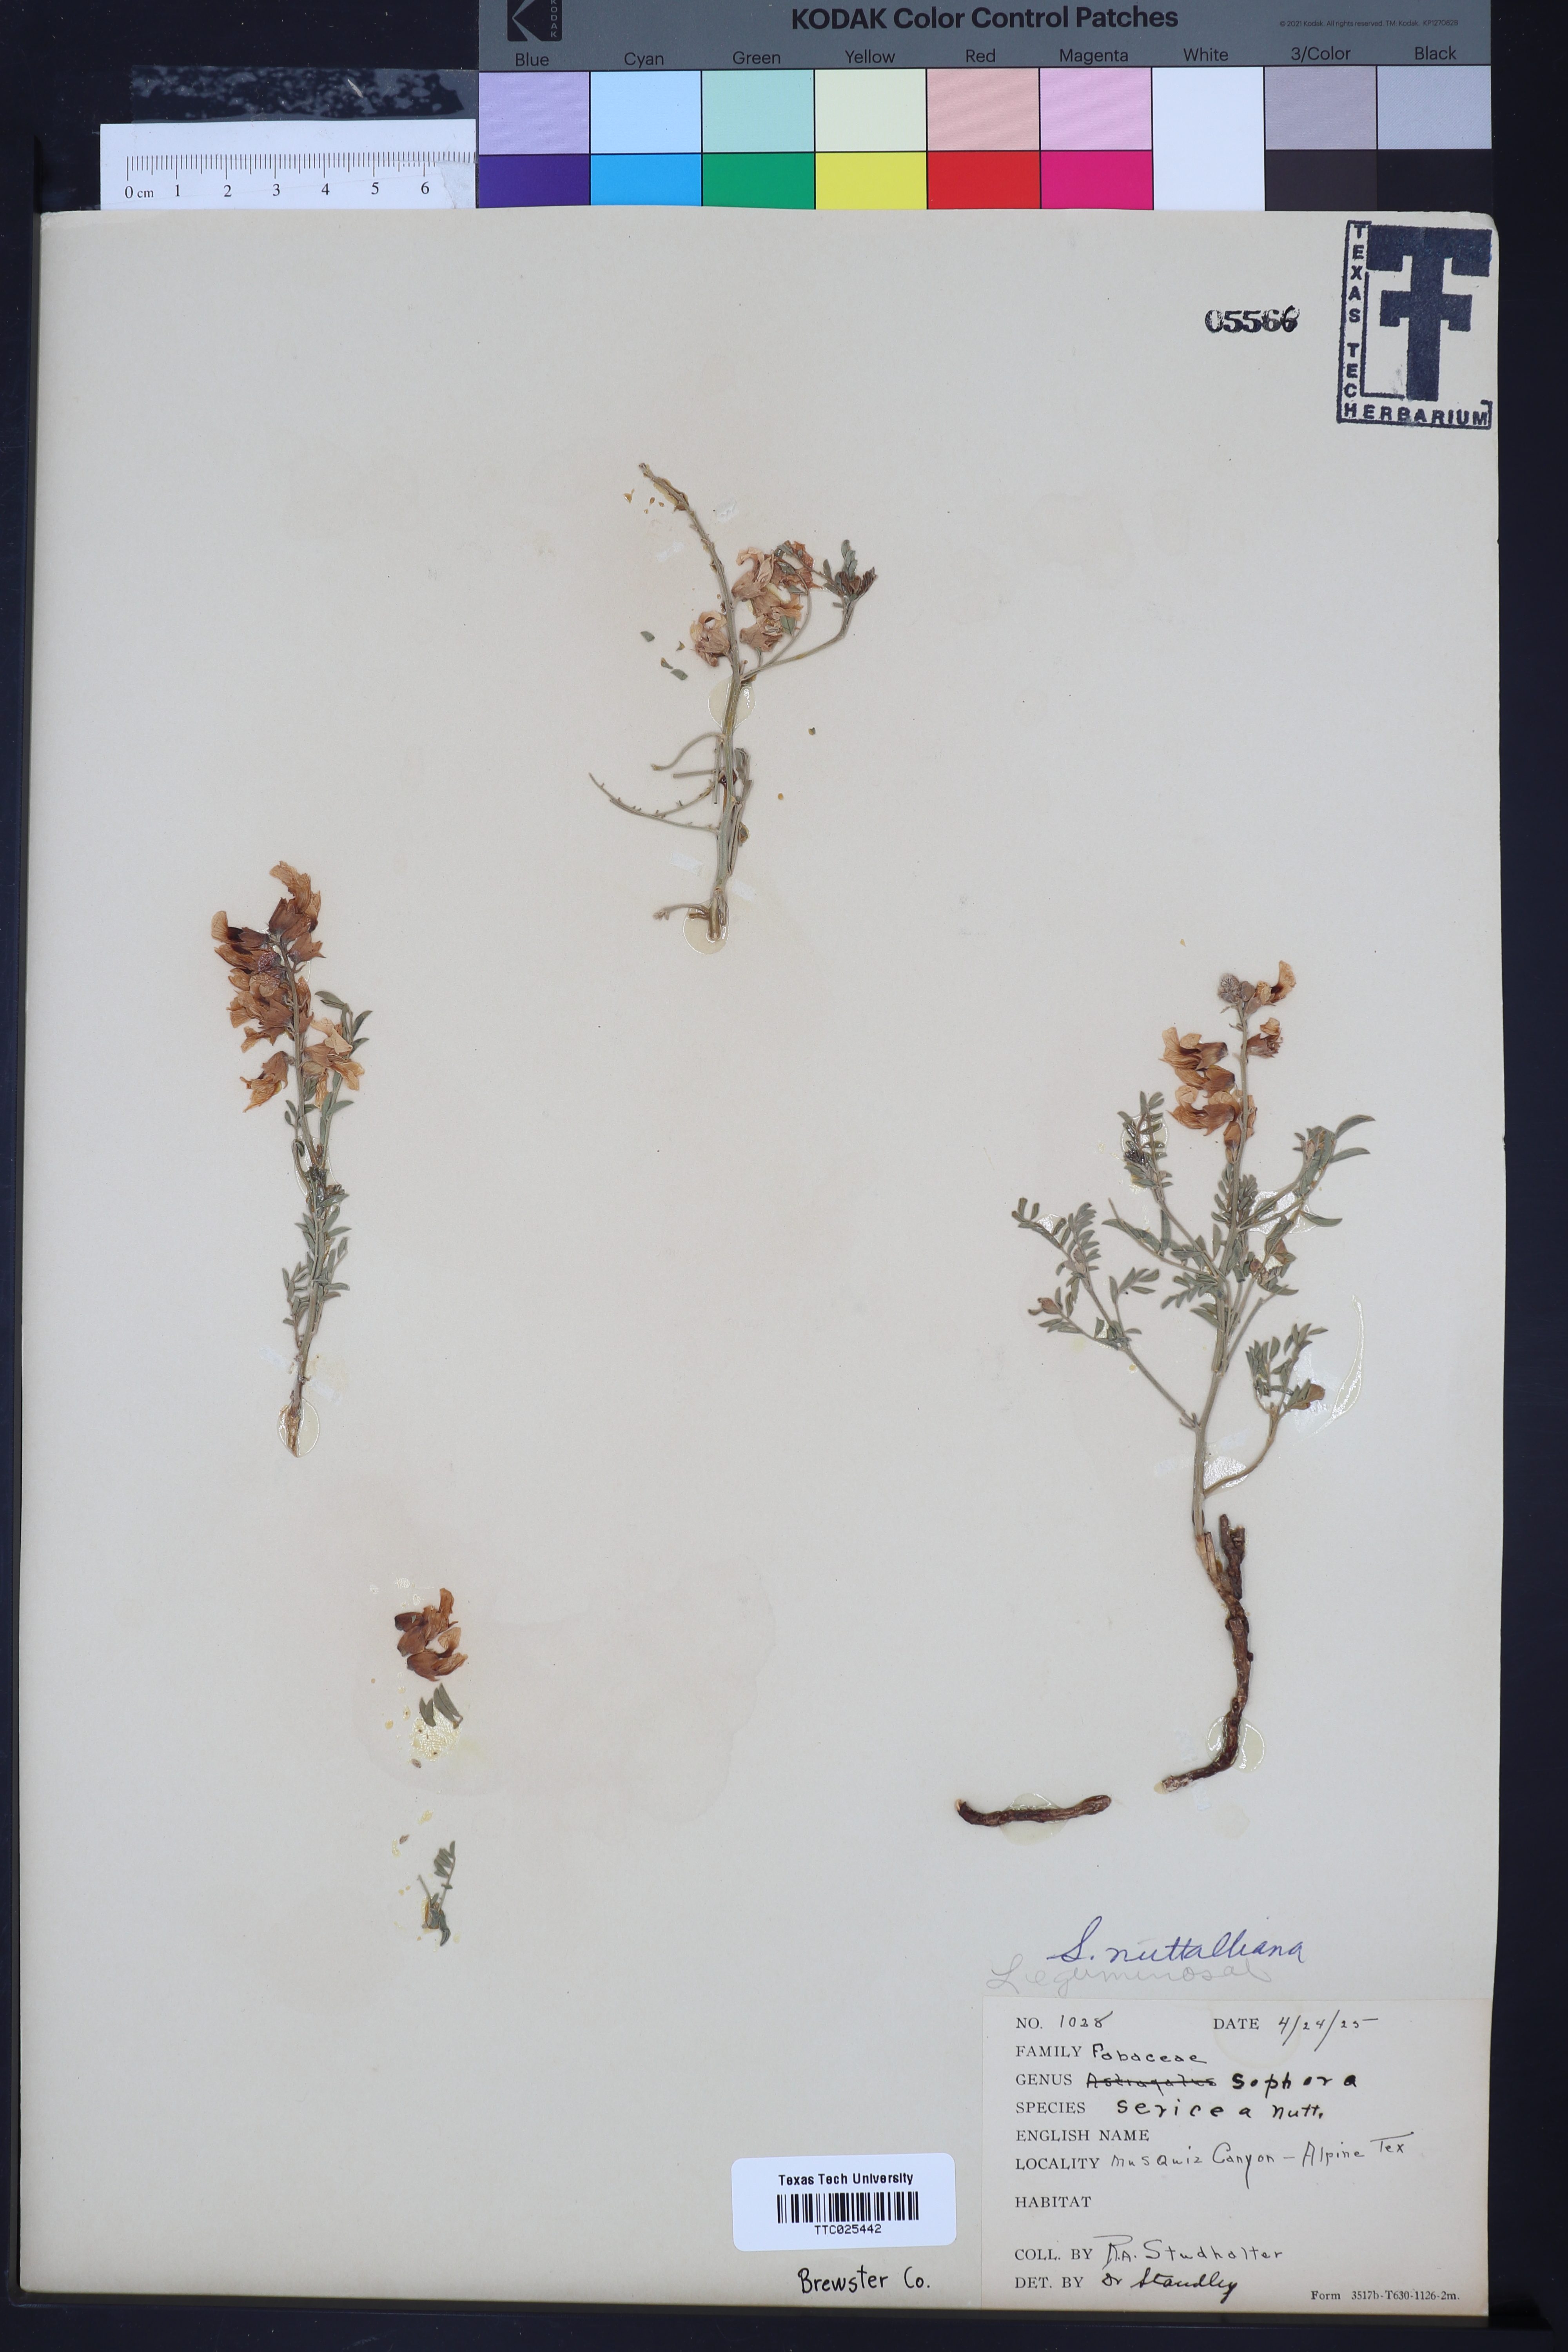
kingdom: Plantae
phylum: Tracheophyta
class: Magnoliopsida
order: Fabales
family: Fabaceae
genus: Sophora
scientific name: Sophora nuttalliana
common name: Silky sophora
